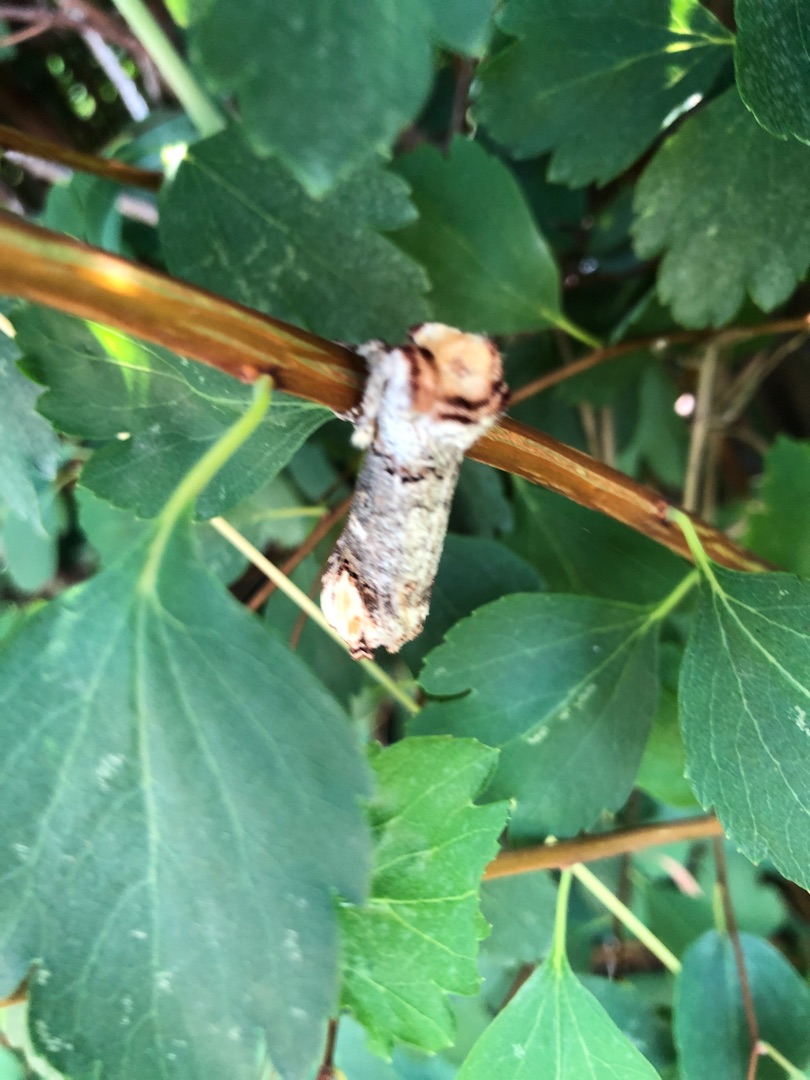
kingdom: Animalia
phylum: Arthropoda
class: Insecta
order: Lepidoptera
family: Notodontidae
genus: Phalera
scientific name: Phalera bucephala
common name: Måneplet
